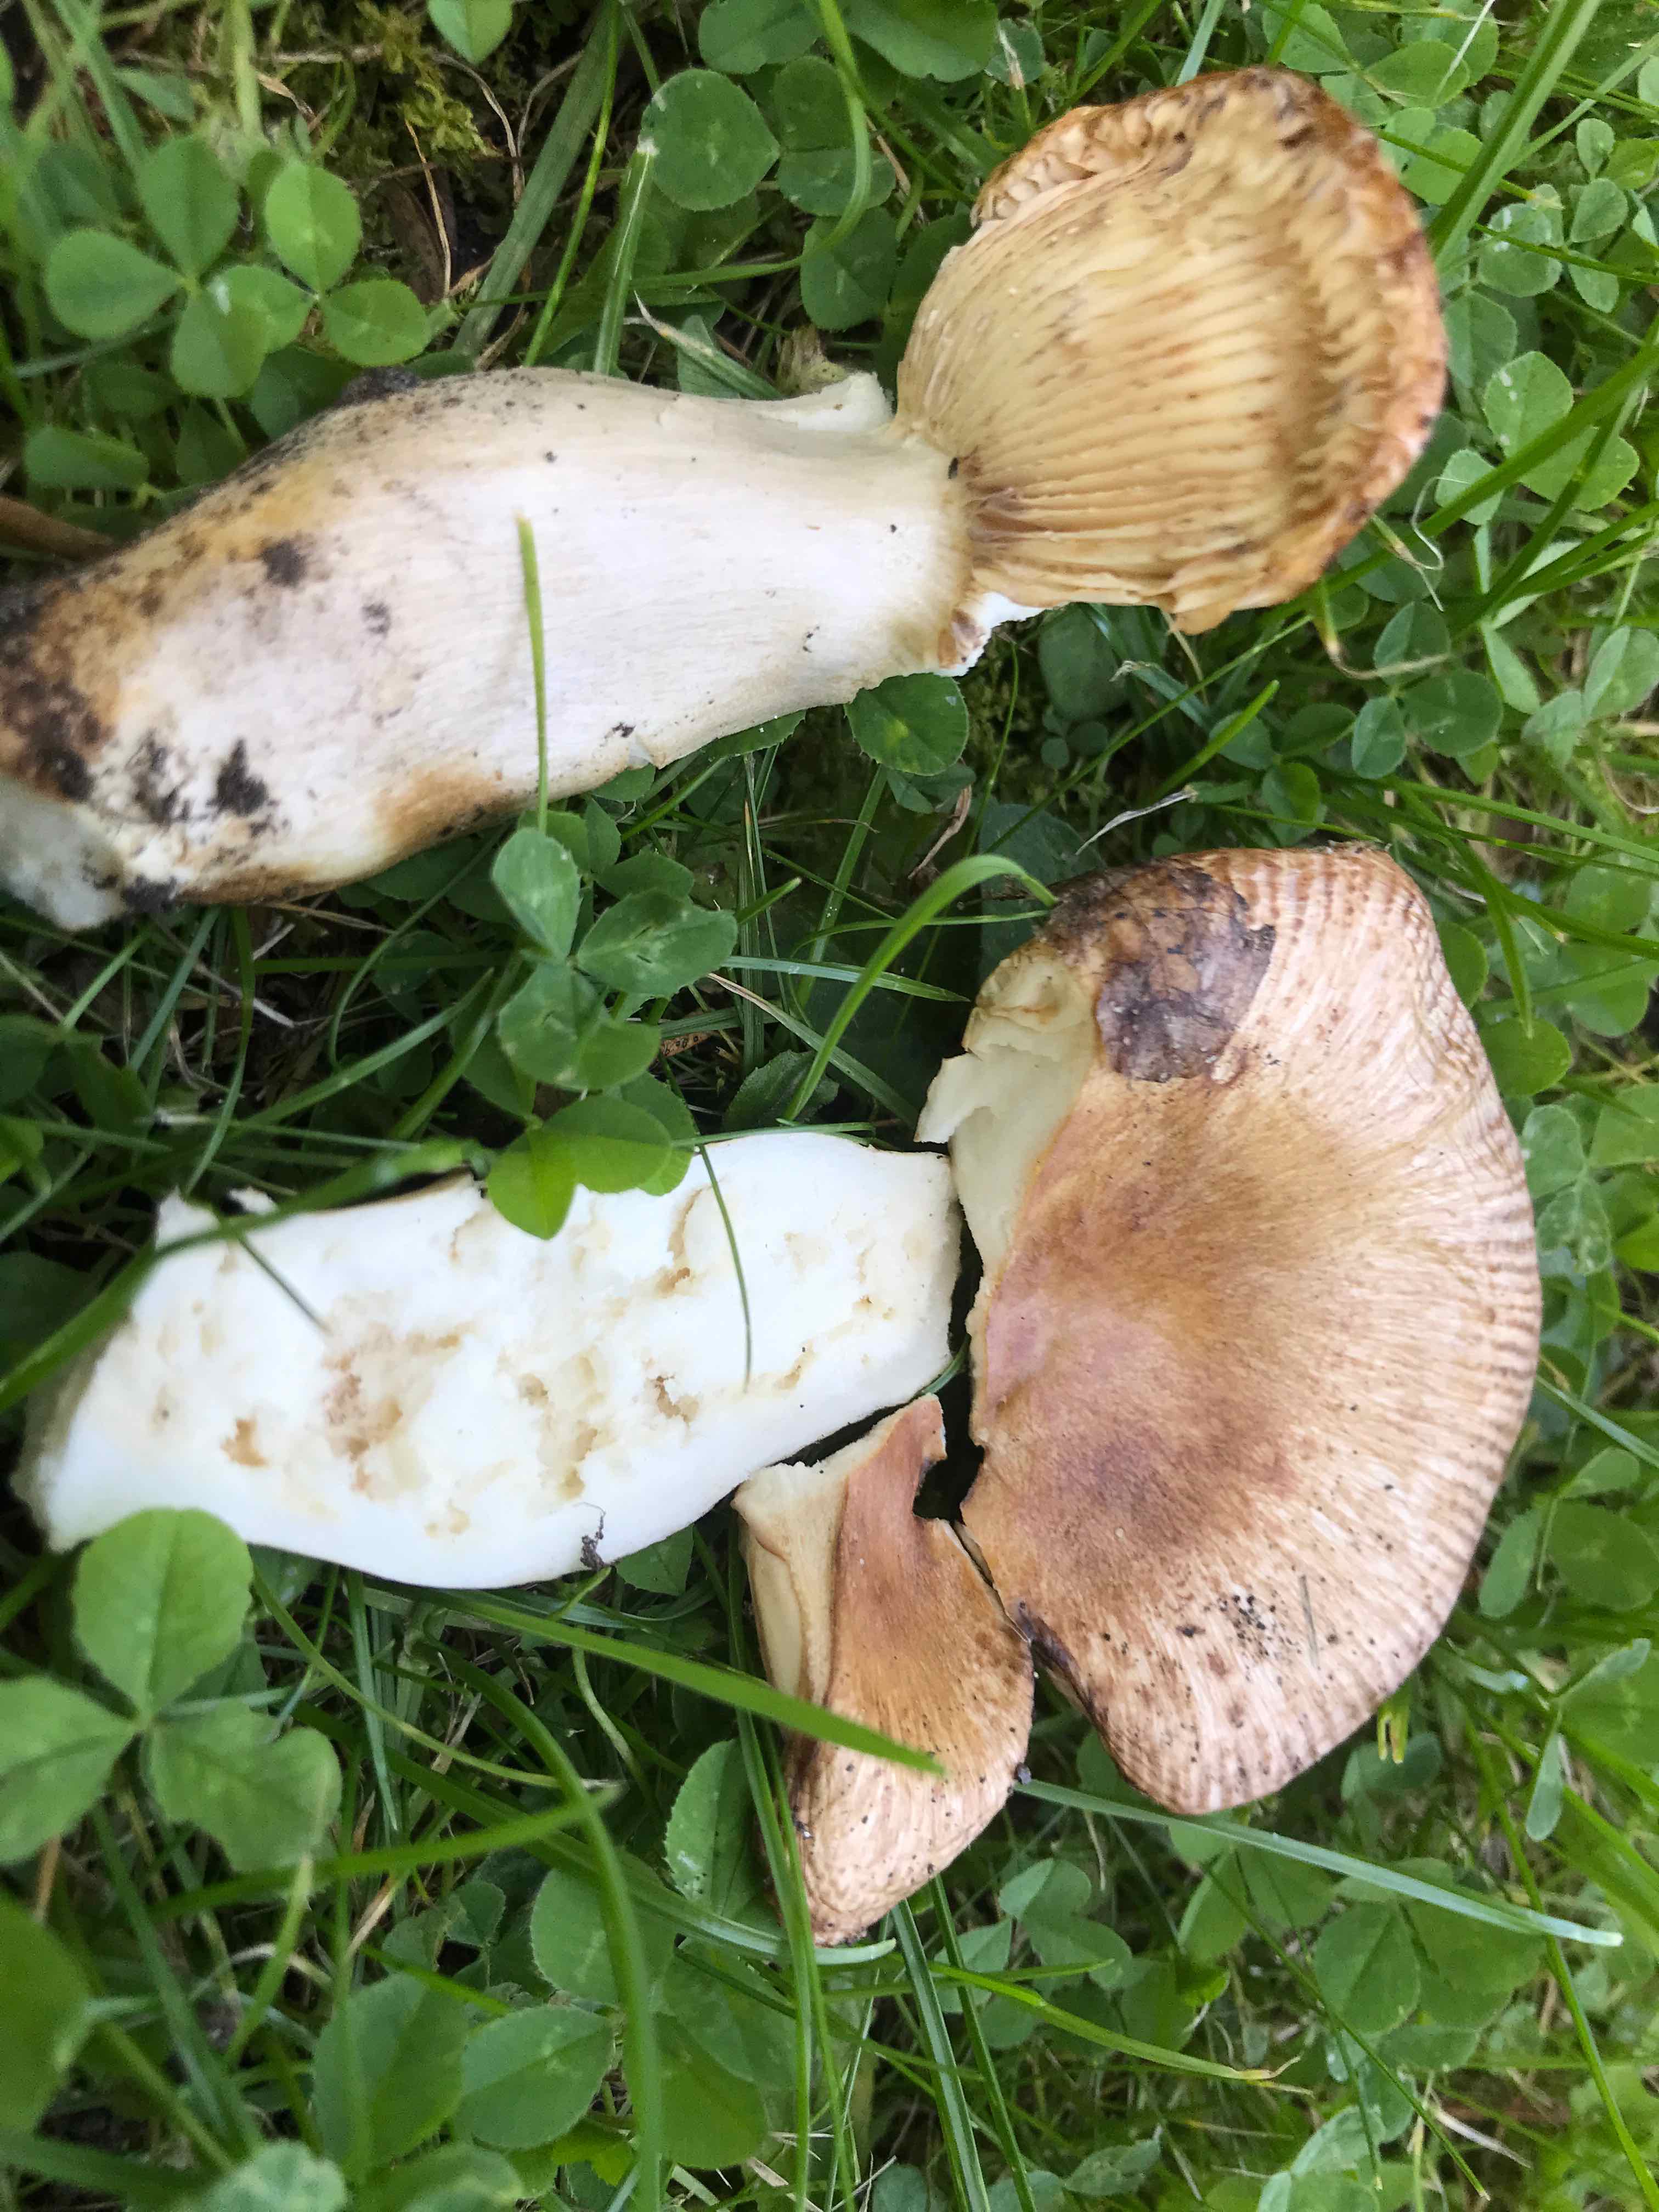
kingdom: Fungi
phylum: Basidiomycota
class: Agaricomycetes
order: Russulales
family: Russulaceae
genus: Russula
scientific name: Russula
